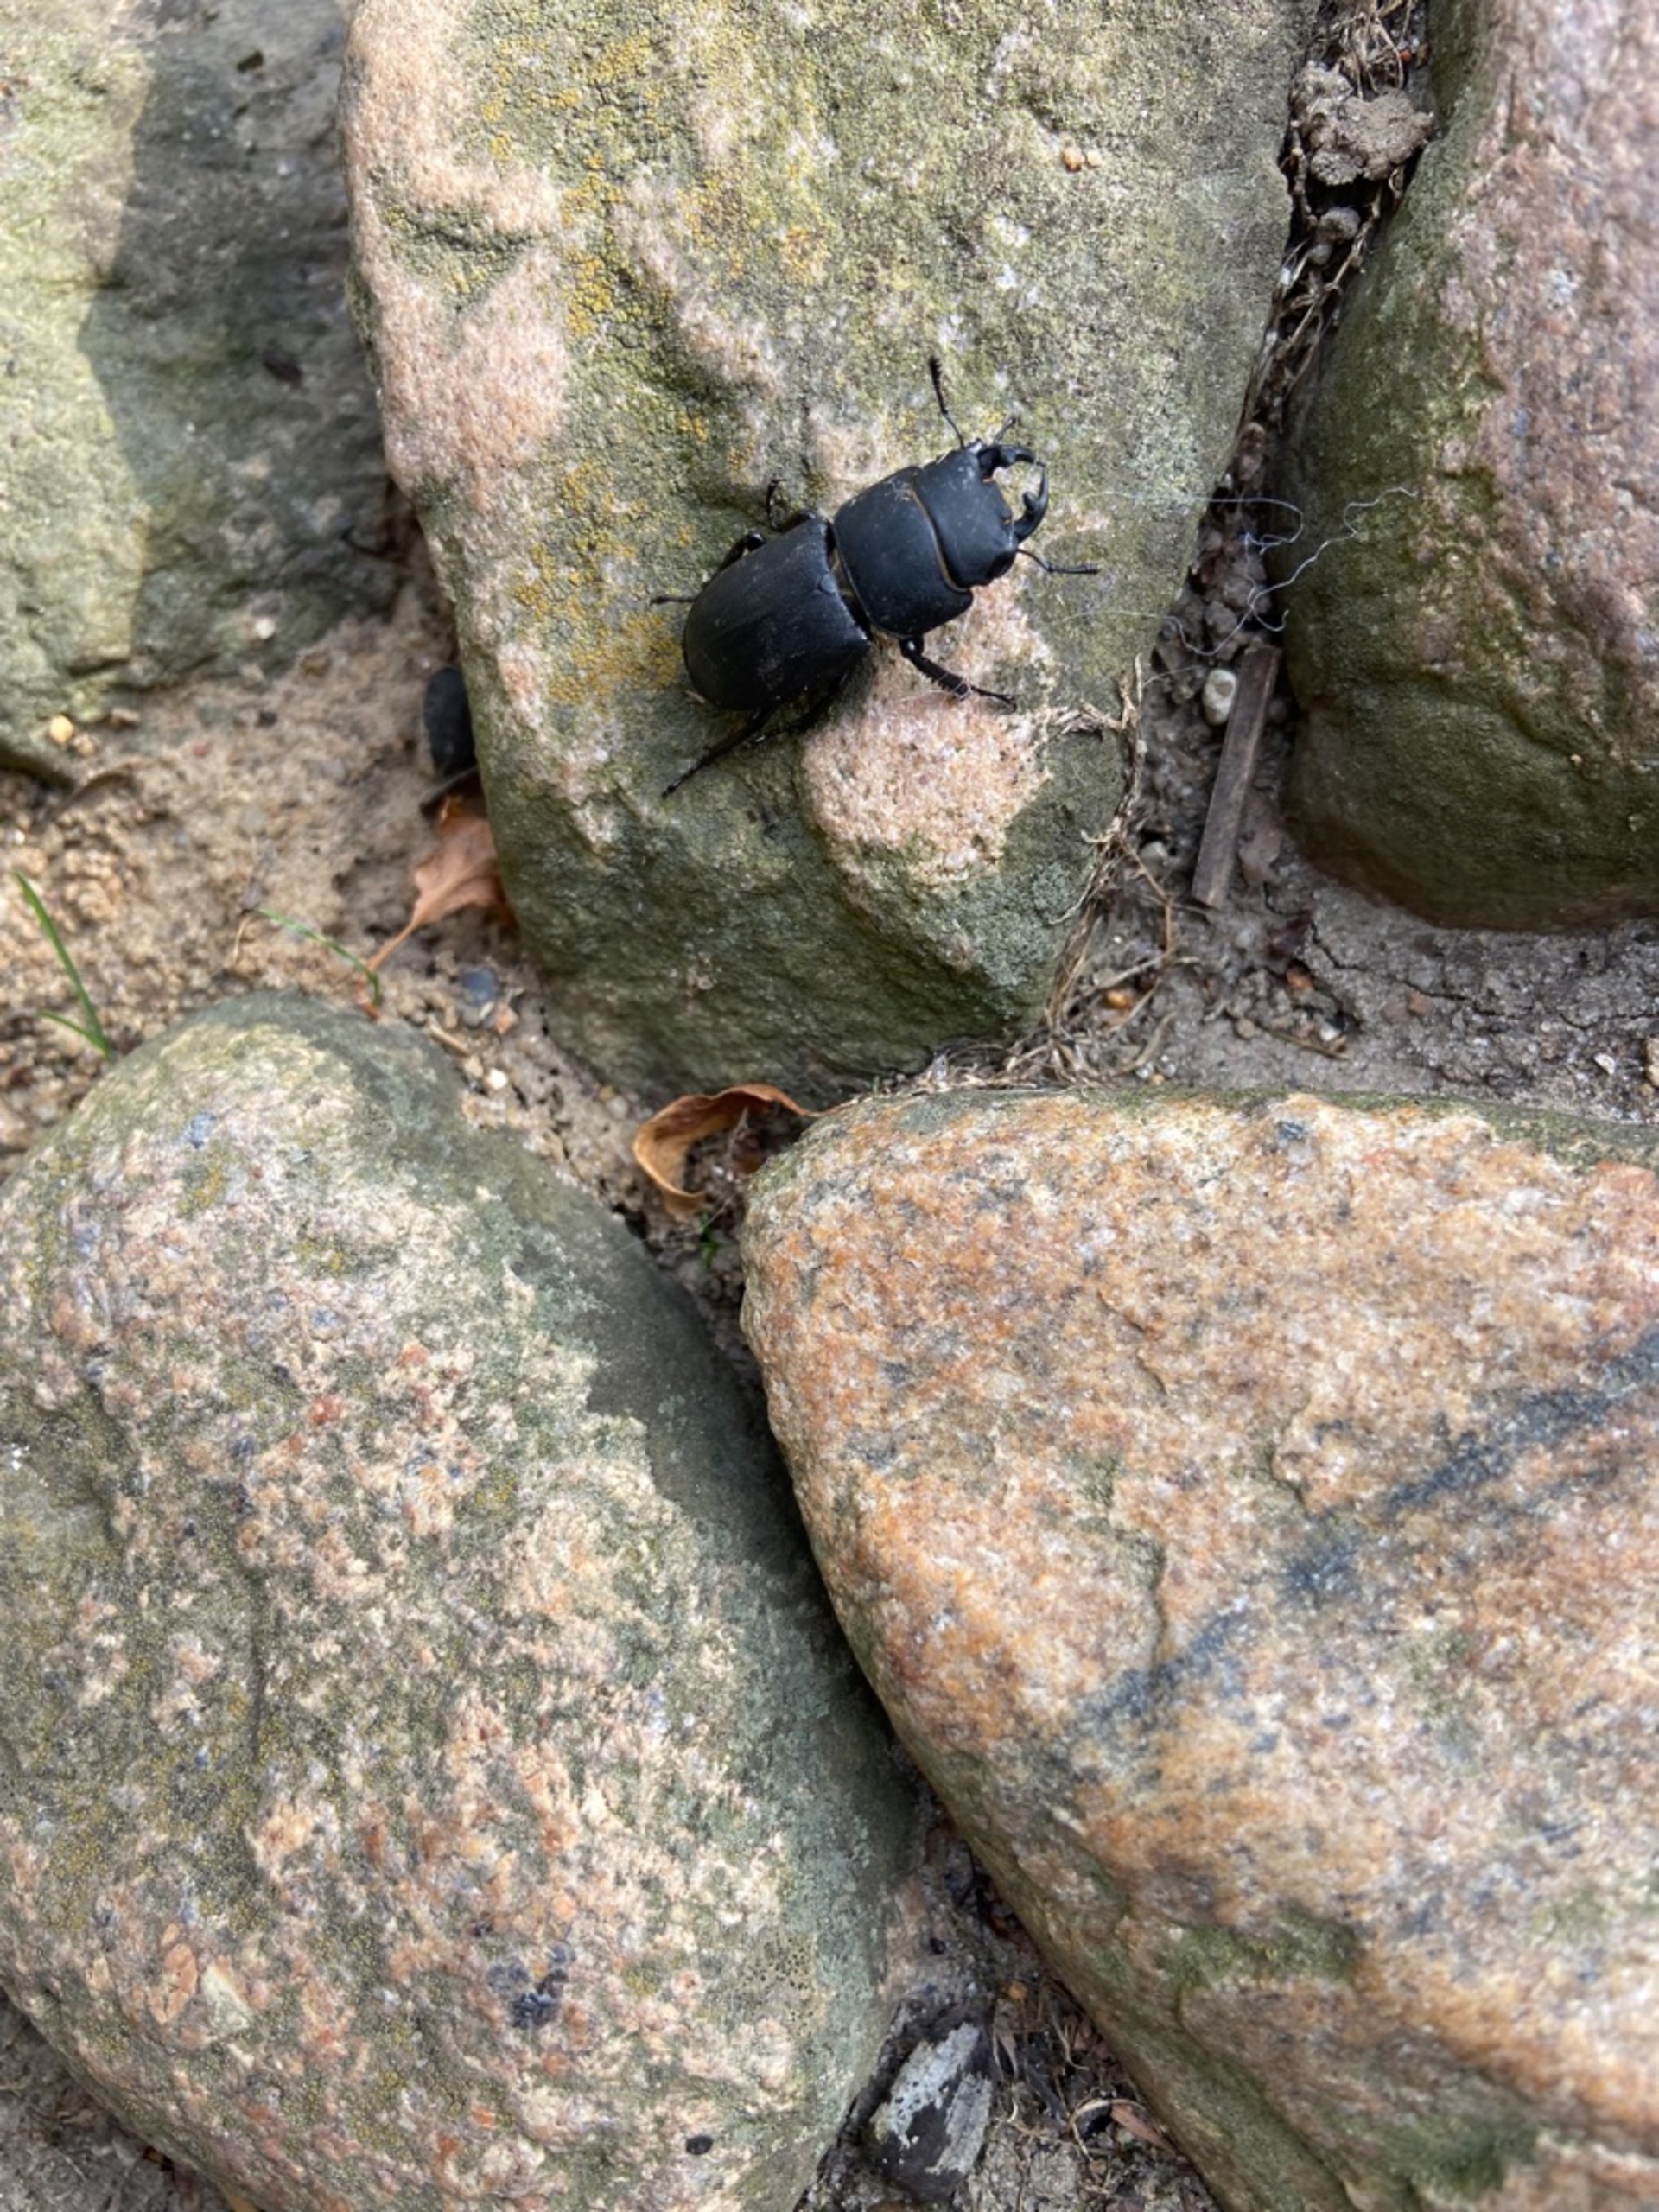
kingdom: Animalia
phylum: Arthropoda
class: Insecta
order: Coleoptera
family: Lucanidae
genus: Dorcus
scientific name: Dorcus parallelipipedus
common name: Bøghjort
